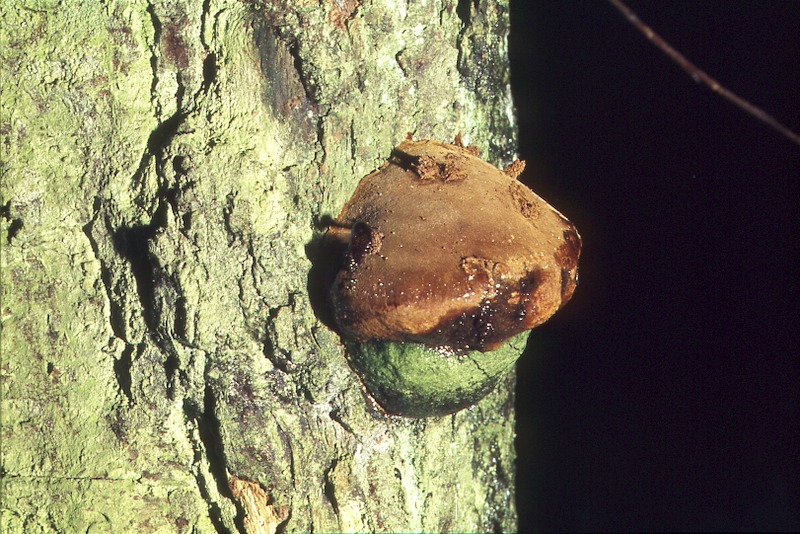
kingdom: Fungi
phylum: Basidiomycota
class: Agaricomycetes
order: Hymenochaetales
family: Hymenochaetaceae
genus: Fomitiporia
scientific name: Fomitiporia robusta
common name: Robust bracket
